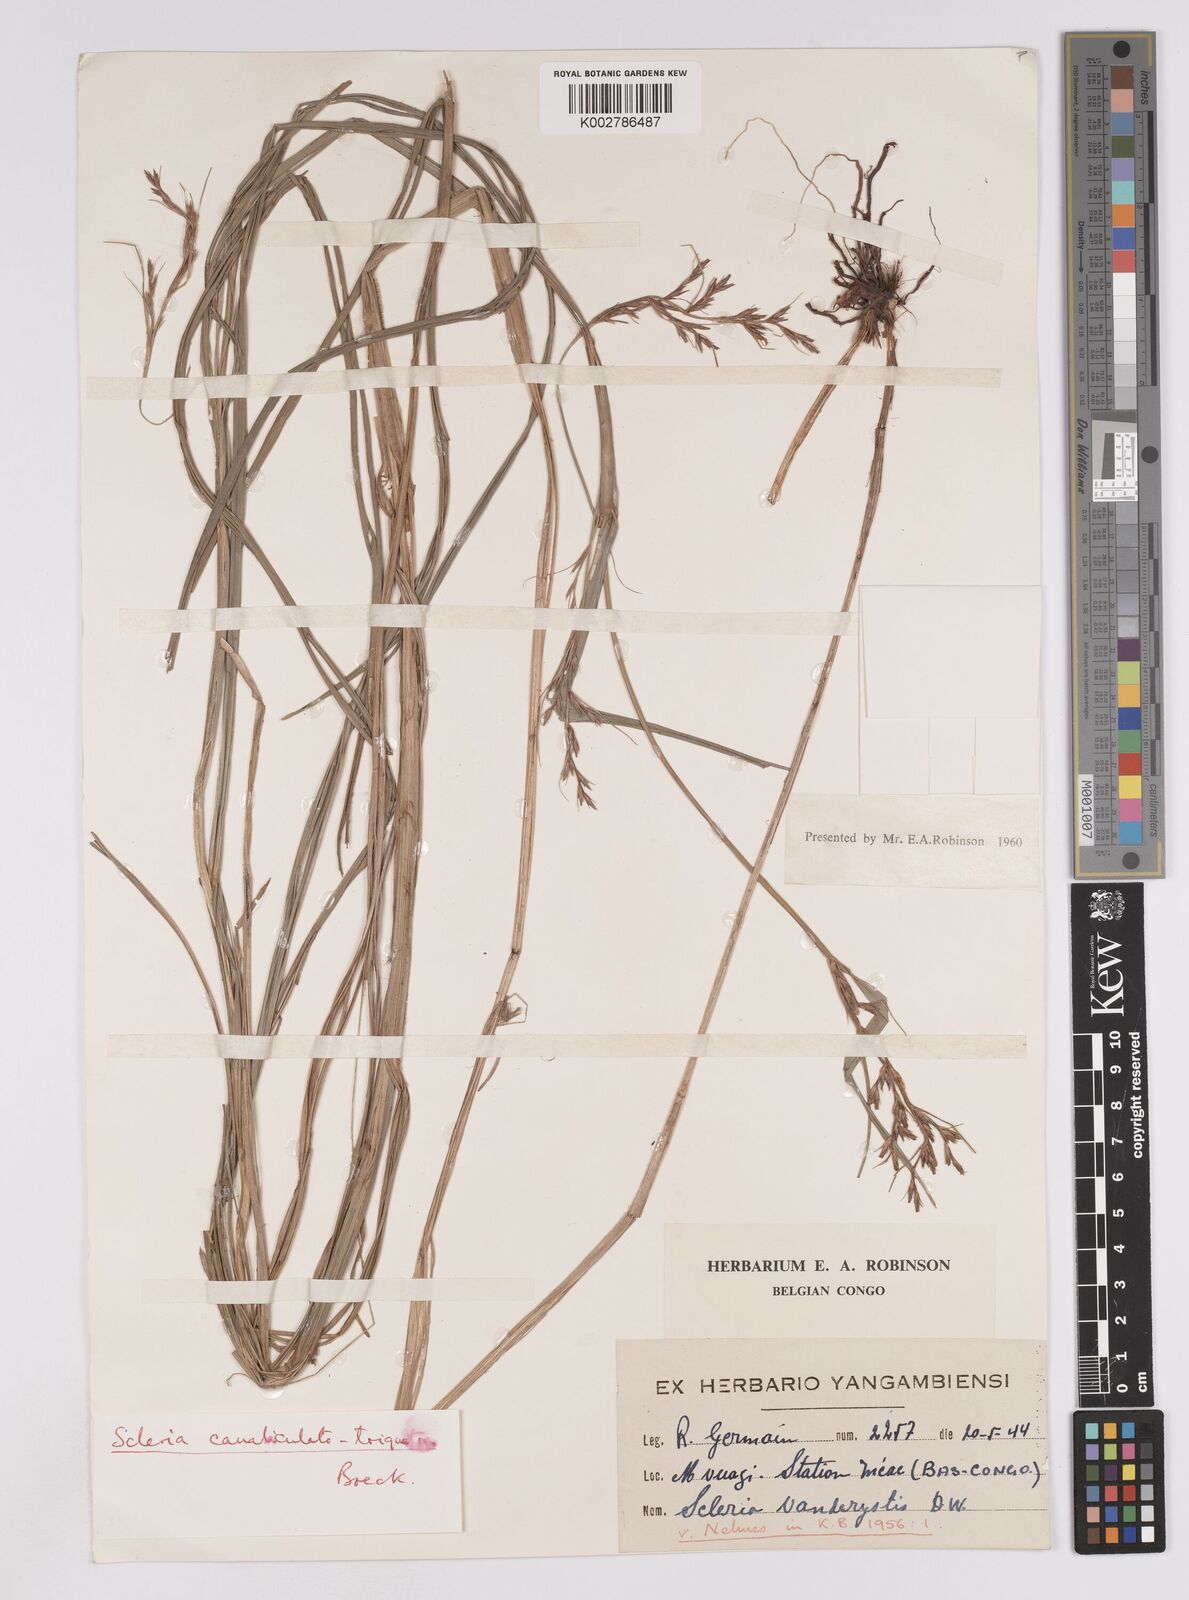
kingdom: Plantae
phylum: Tracheophyta
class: Liliopsida
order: Poales
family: Cyperaceae
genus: Scleria
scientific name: Scleria lagoensis
